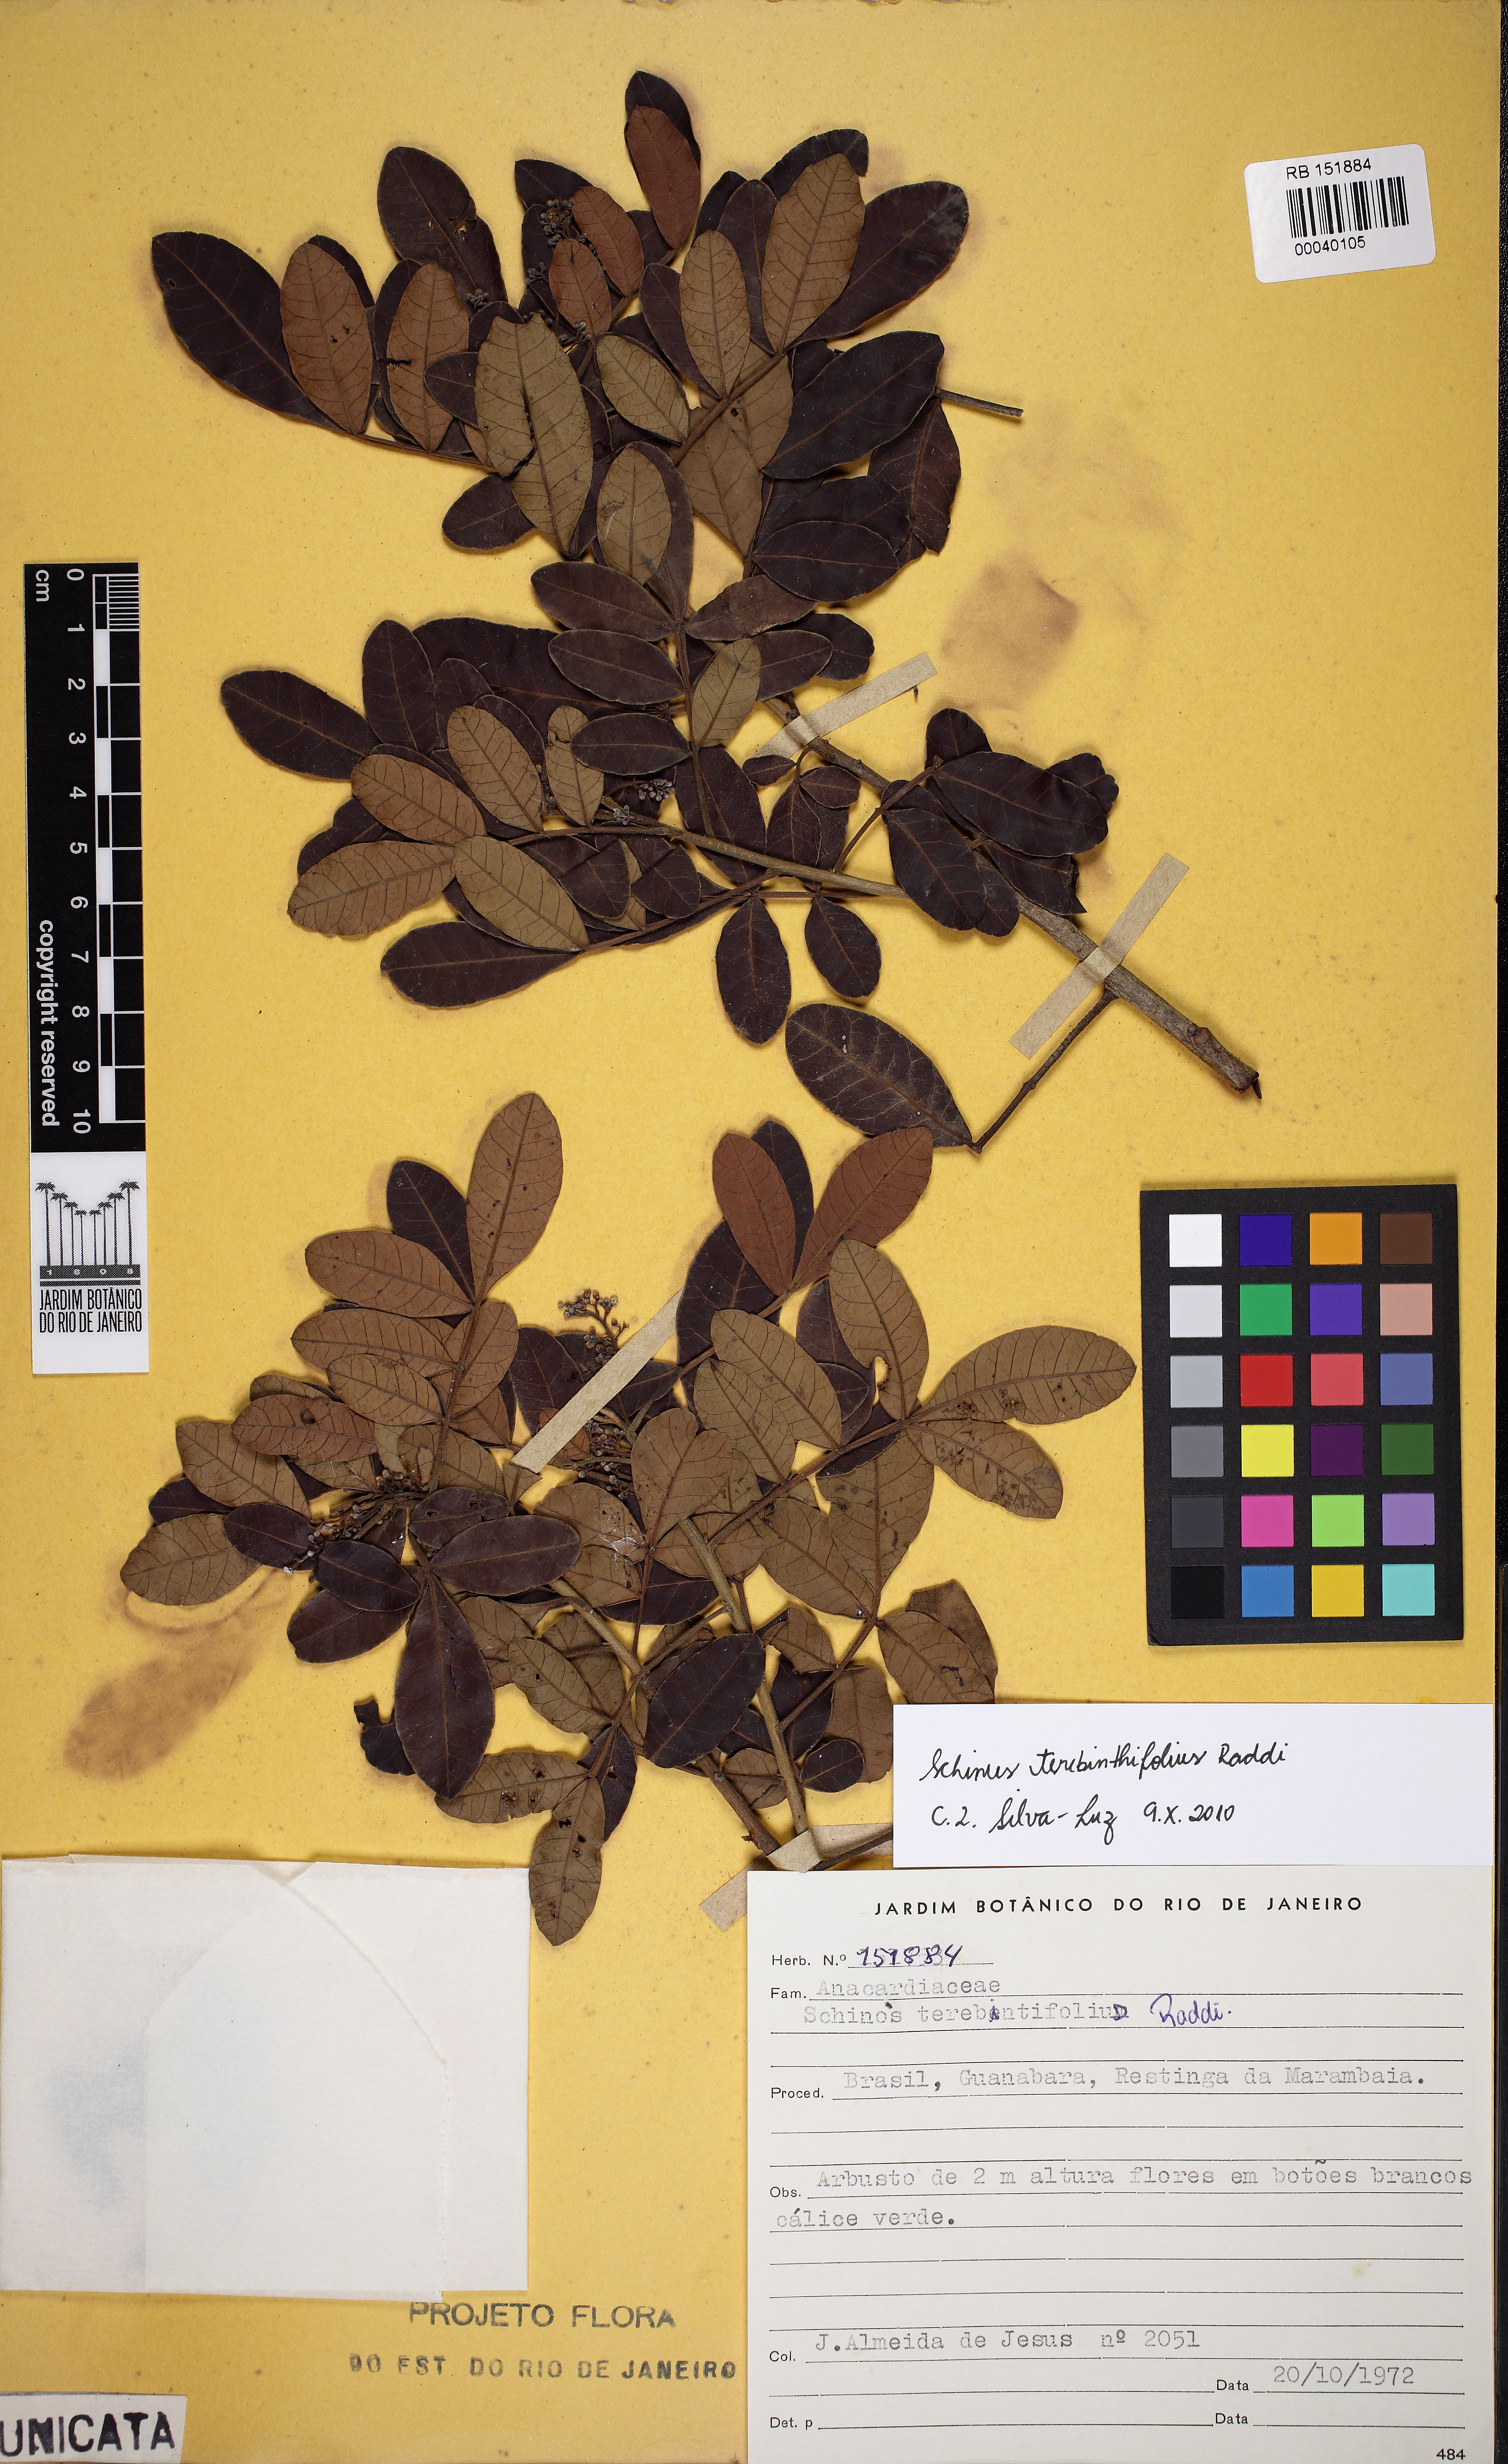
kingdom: Plantae
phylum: Tracheophyta
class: Magnoliopsida
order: Sapindales
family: Anacardiaceae
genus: Schinus
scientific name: Schinus terebinthifolia
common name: Brazilian peppertree
